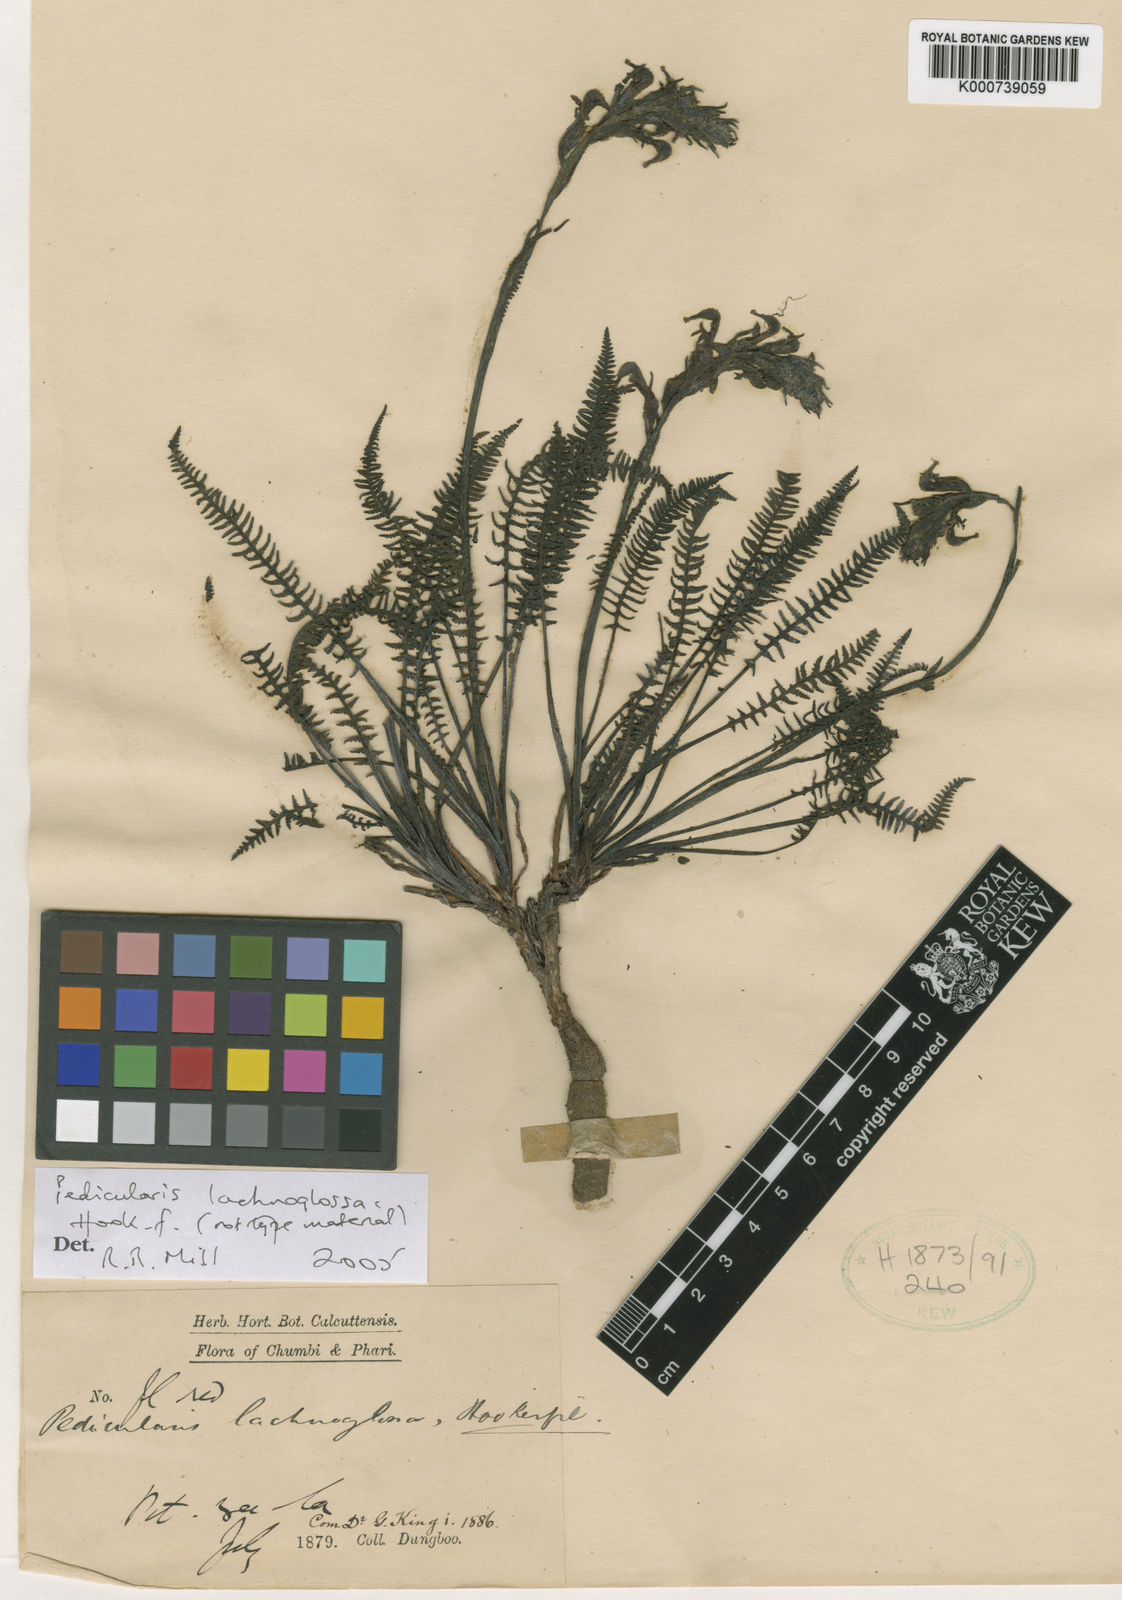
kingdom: Plantae
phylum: Tracheophyta
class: Magnoliopsida
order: Lamiales
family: Orobanchaceae
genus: Pedicularis
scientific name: Pedicularis lachnoglossa
